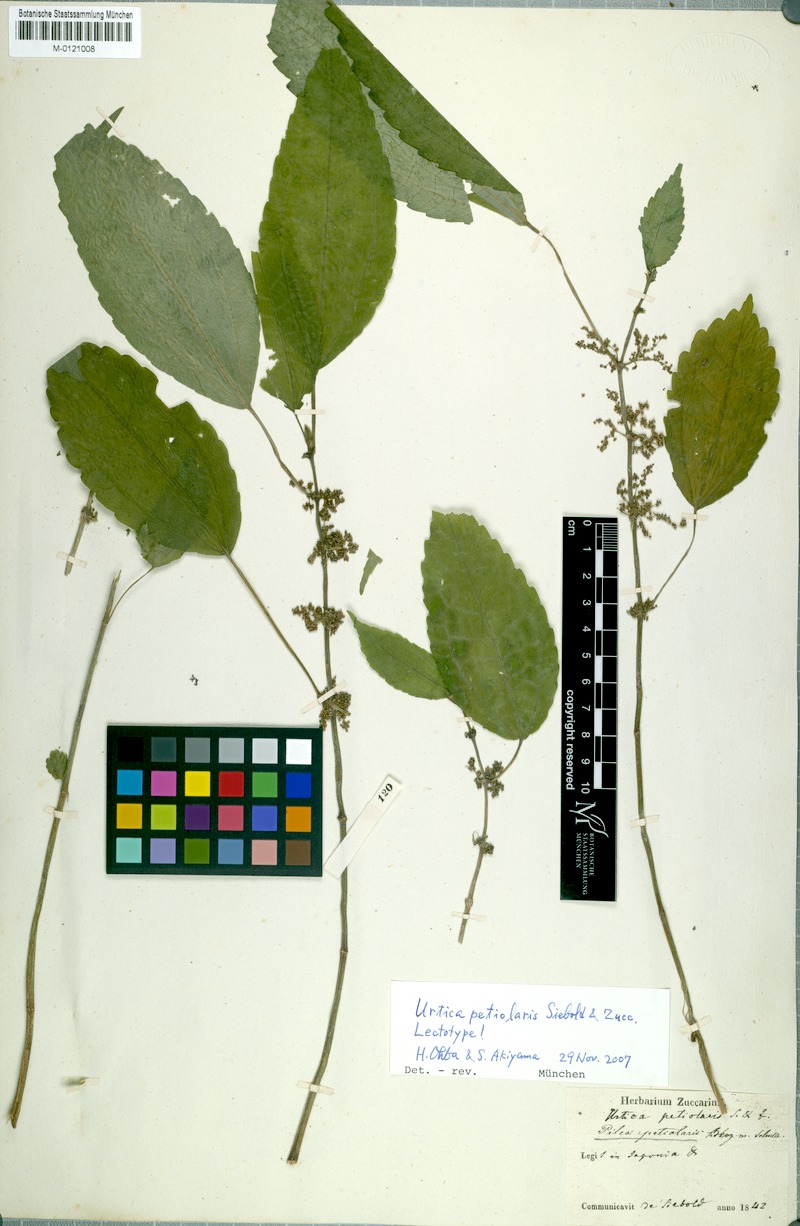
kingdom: Plantae
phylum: Tracheophyta
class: Magnoliopsida
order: Rosales
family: Urticaceae
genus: Pilea
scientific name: Pilea angulata
